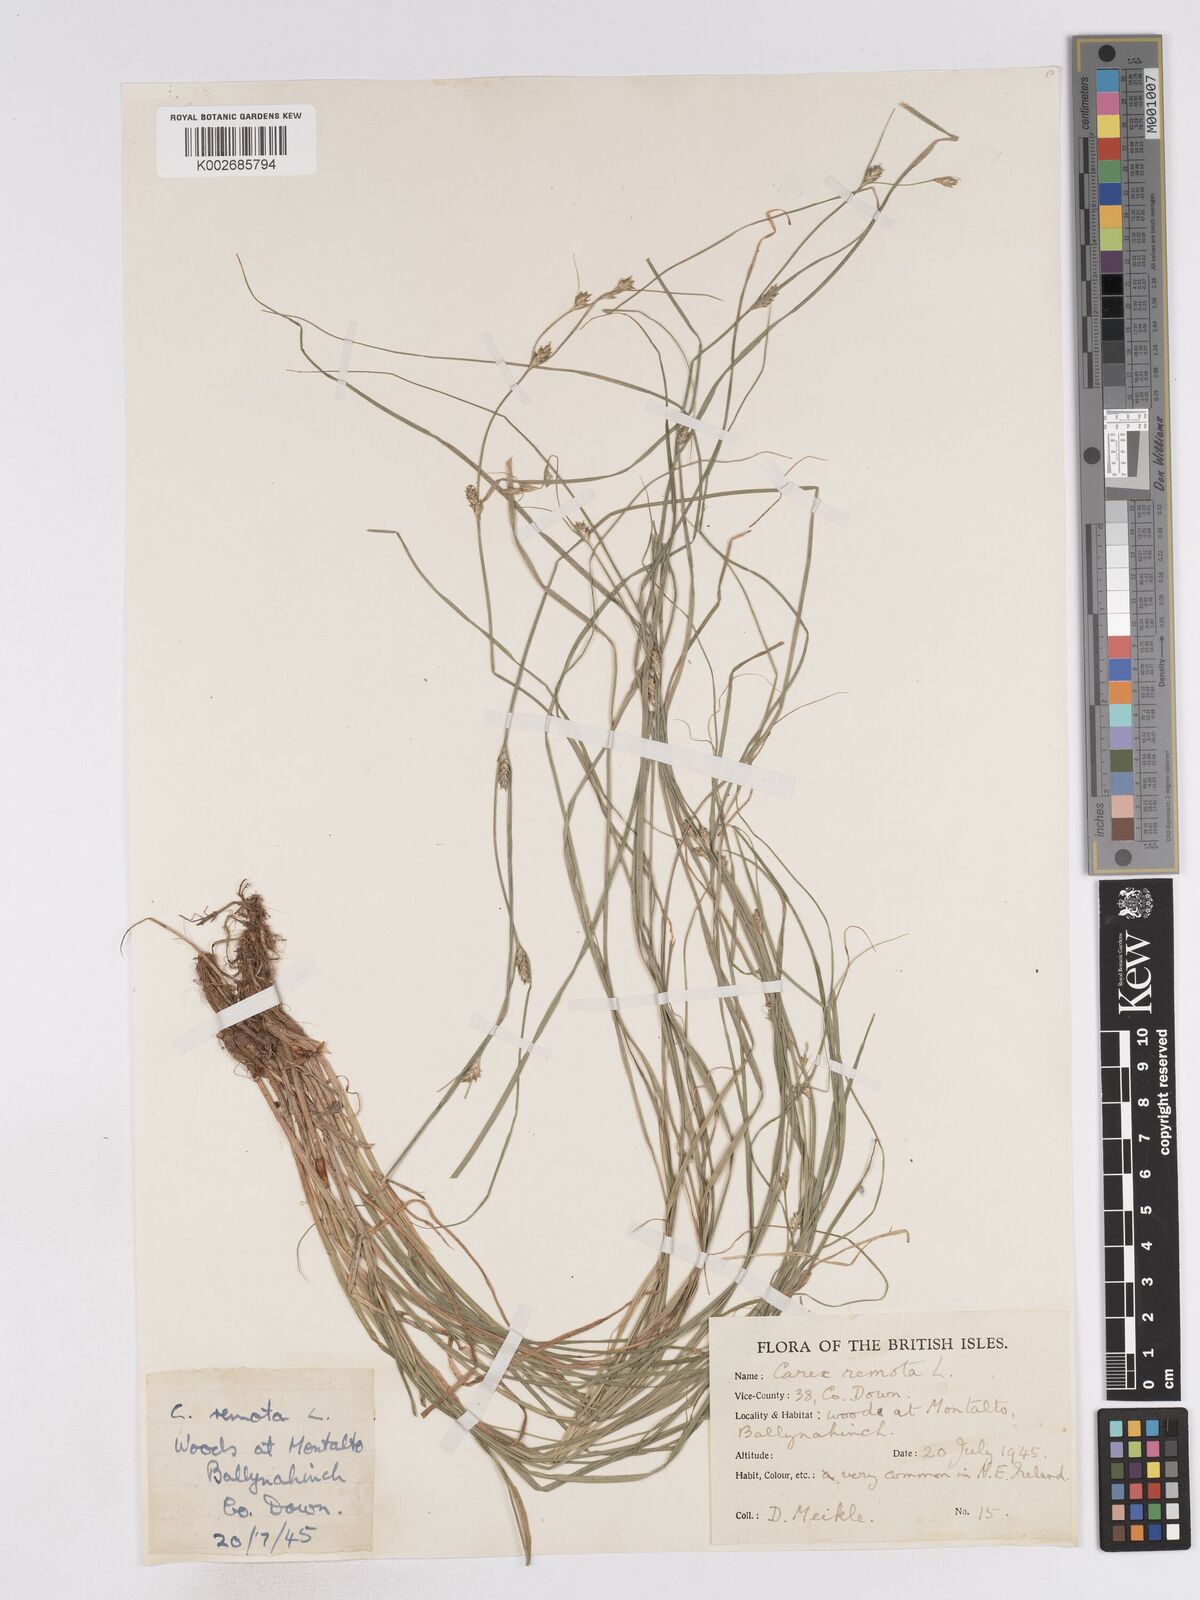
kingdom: Plantae
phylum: Tracheophyta
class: Liliopsida
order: Poales
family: Cyperaceae
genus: Carex
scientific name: Carex remota
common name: Remote sedge
